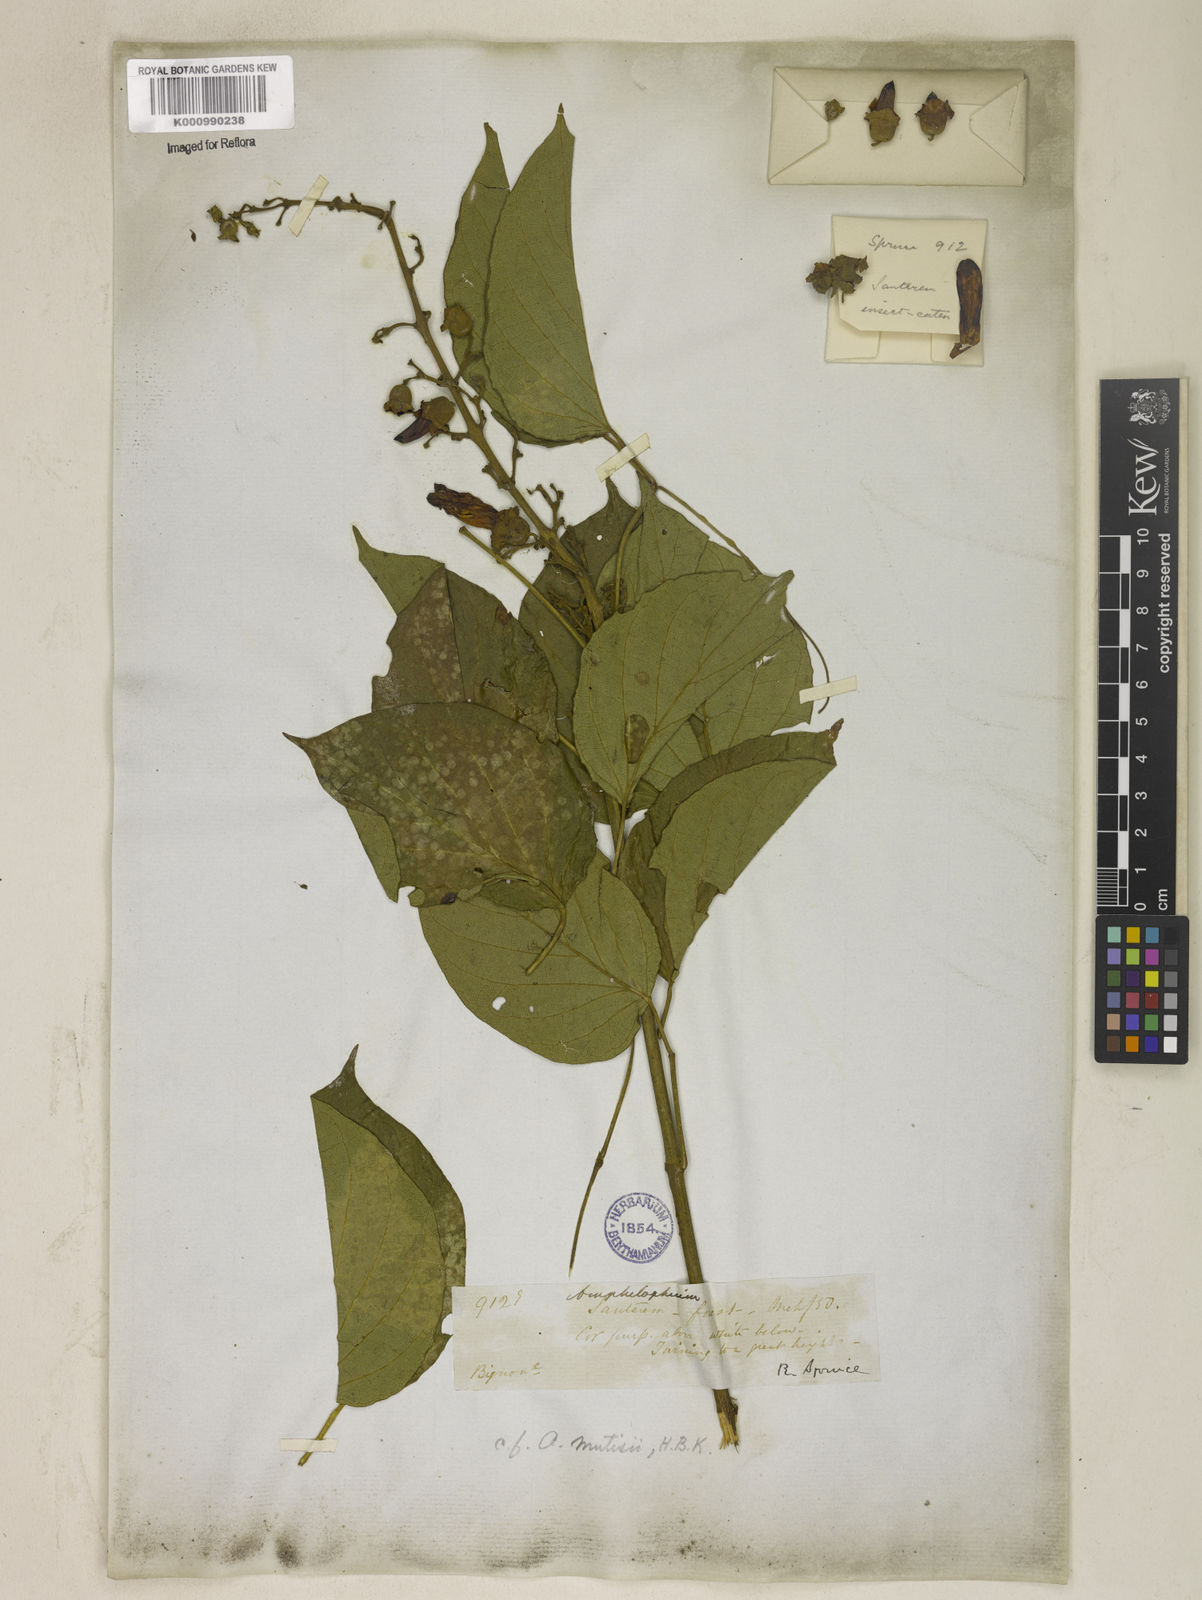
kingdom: Plantae
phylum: Tracheophyta
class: Magnoliopsida
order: Lamiales
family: Bignoniaceae
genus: Amphilophium
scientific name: Amphilophium paniculatum
